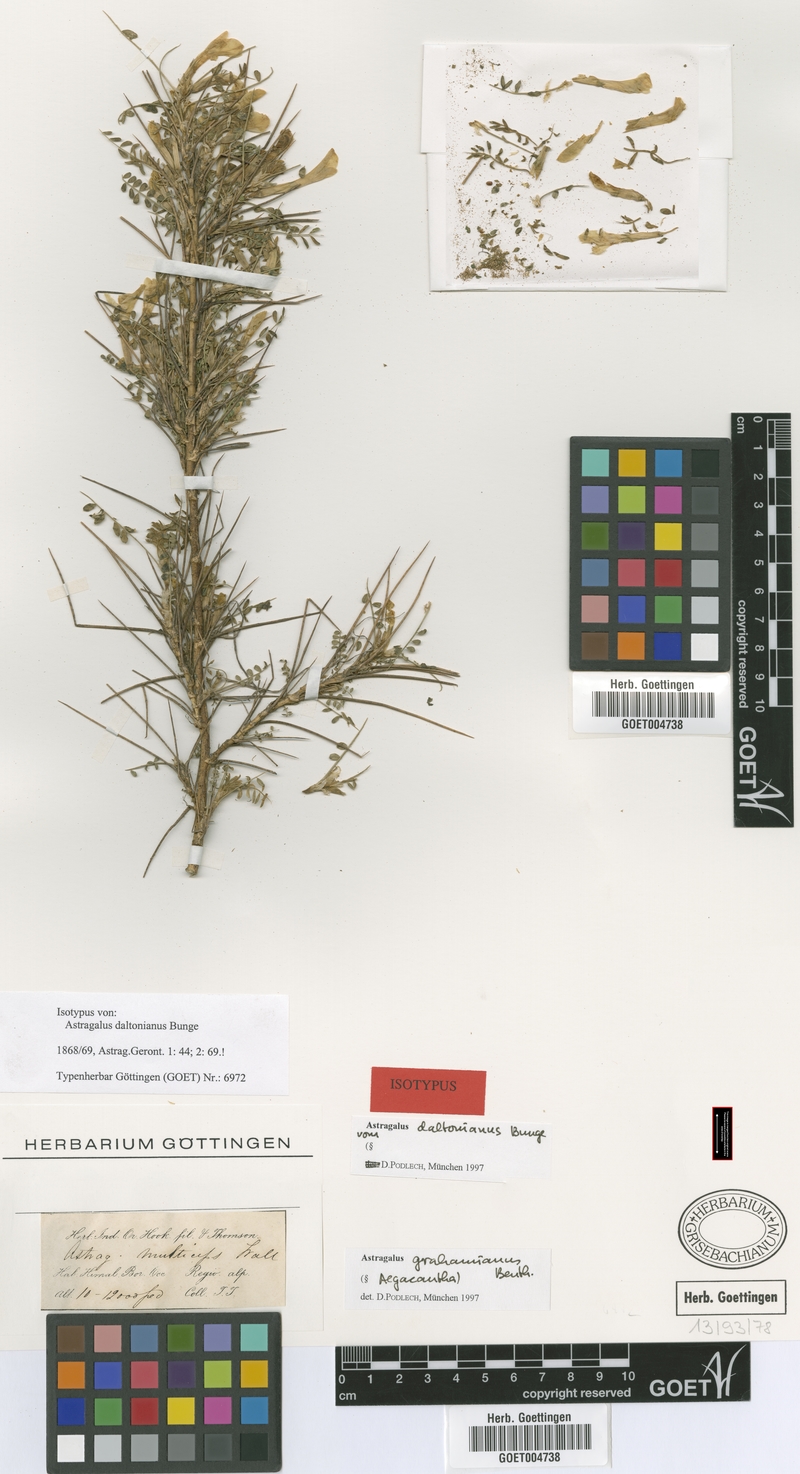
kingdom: Plantae
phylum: Tracheophyta
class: Magnoliopsida
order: Fabales
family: Fabaceae
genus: Astragalus
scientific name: Astragalus grahamianus
